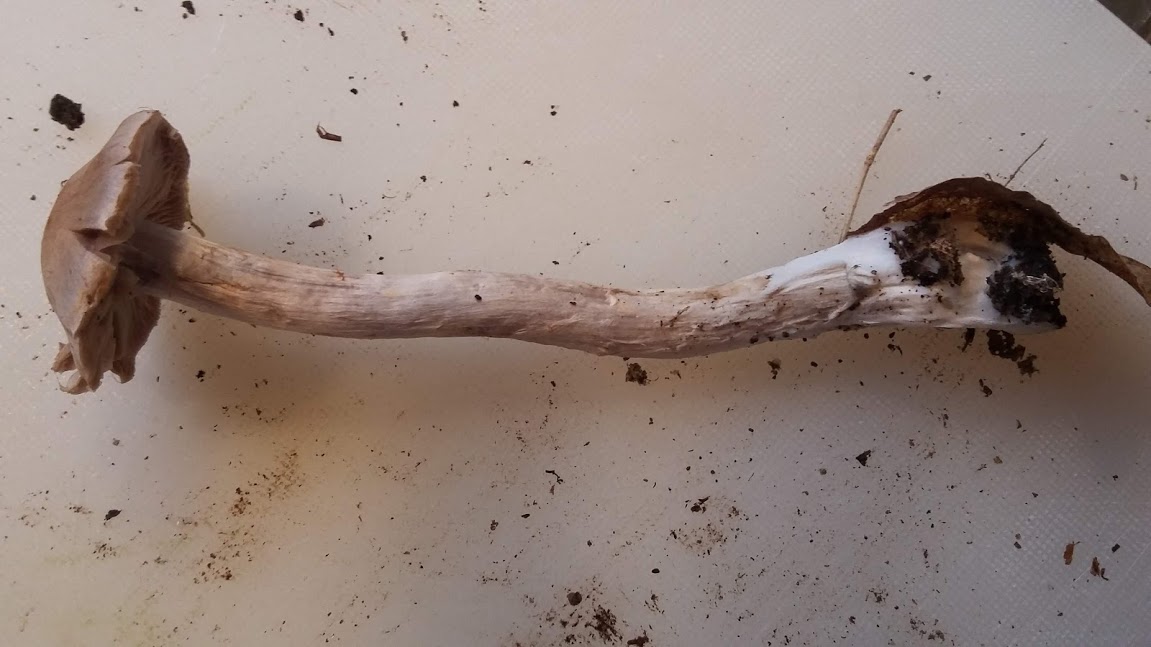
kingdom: Fungi
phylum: Basidiomycota
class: Agaricomycetes
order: Agaricales
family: Cortinariaceae
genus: Cortinarius
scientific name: Cortinarius
